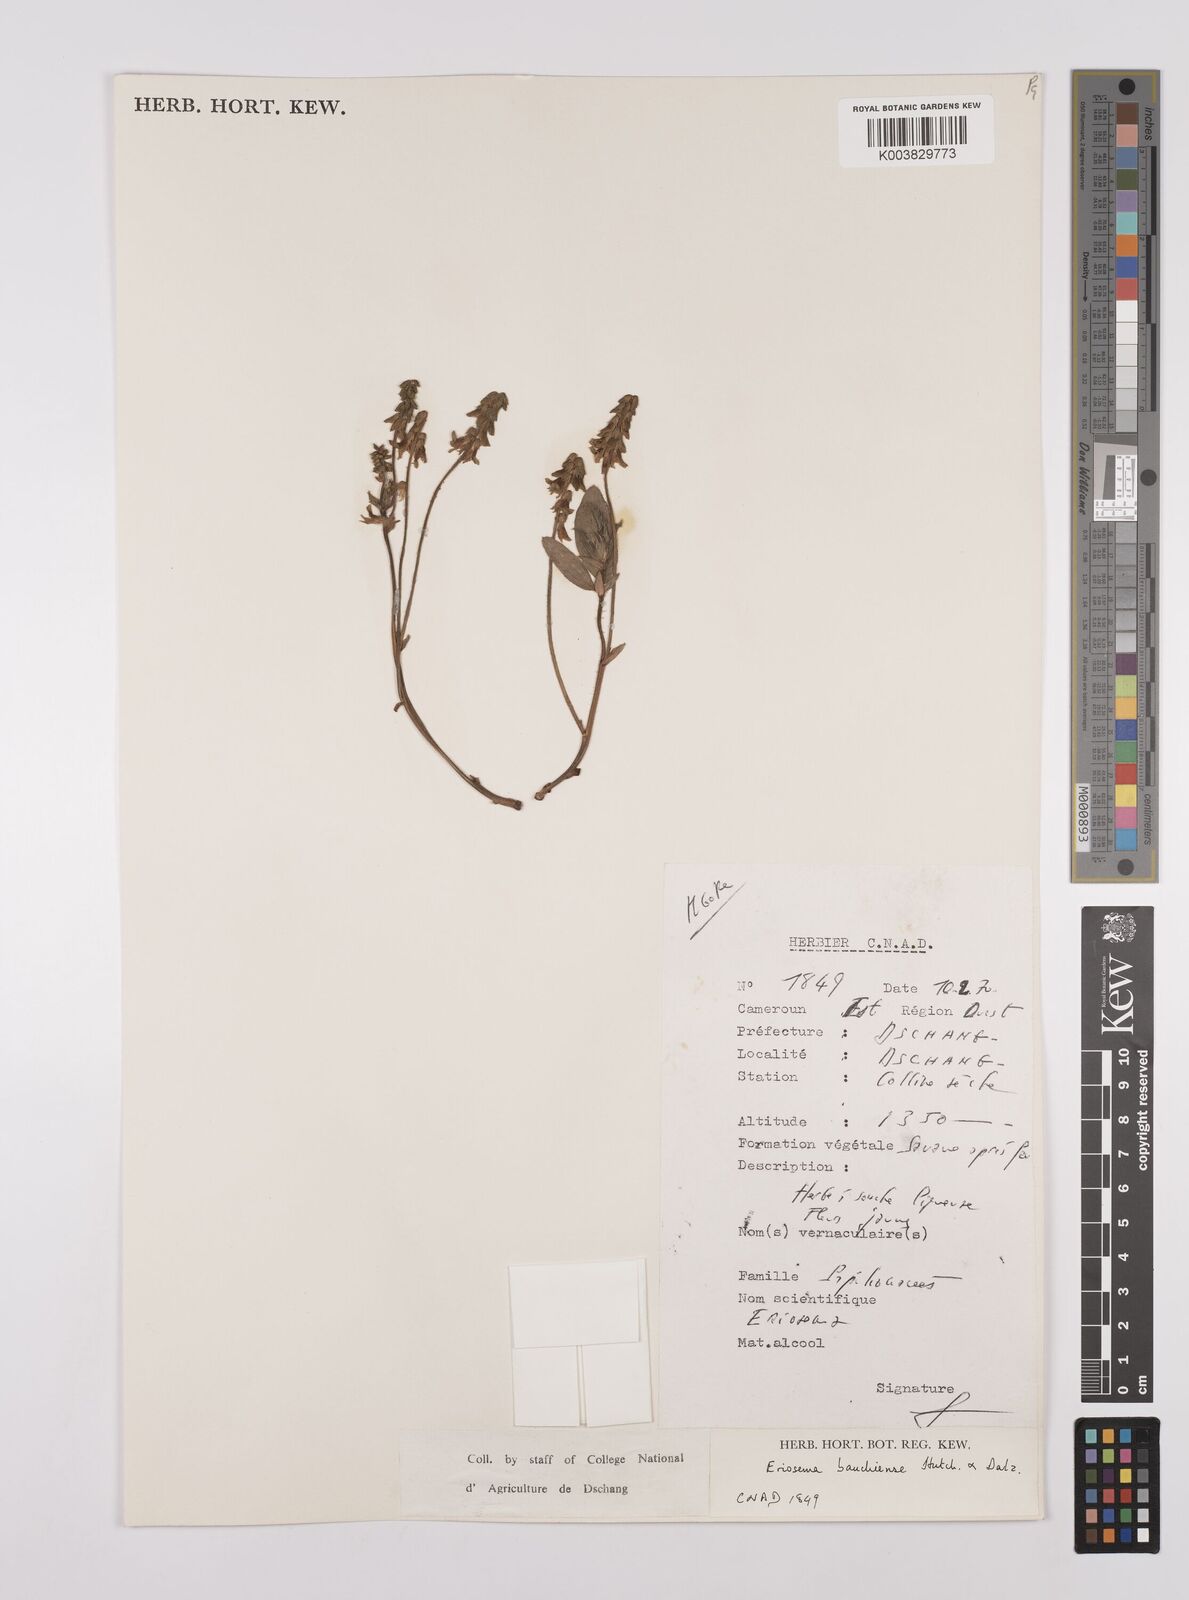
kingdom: Plantae
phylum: Tracheophyta
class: Magnoliopsida
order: Fabales
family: Fabaceae
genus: Eriosema
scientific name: Eriosema bauchiense
